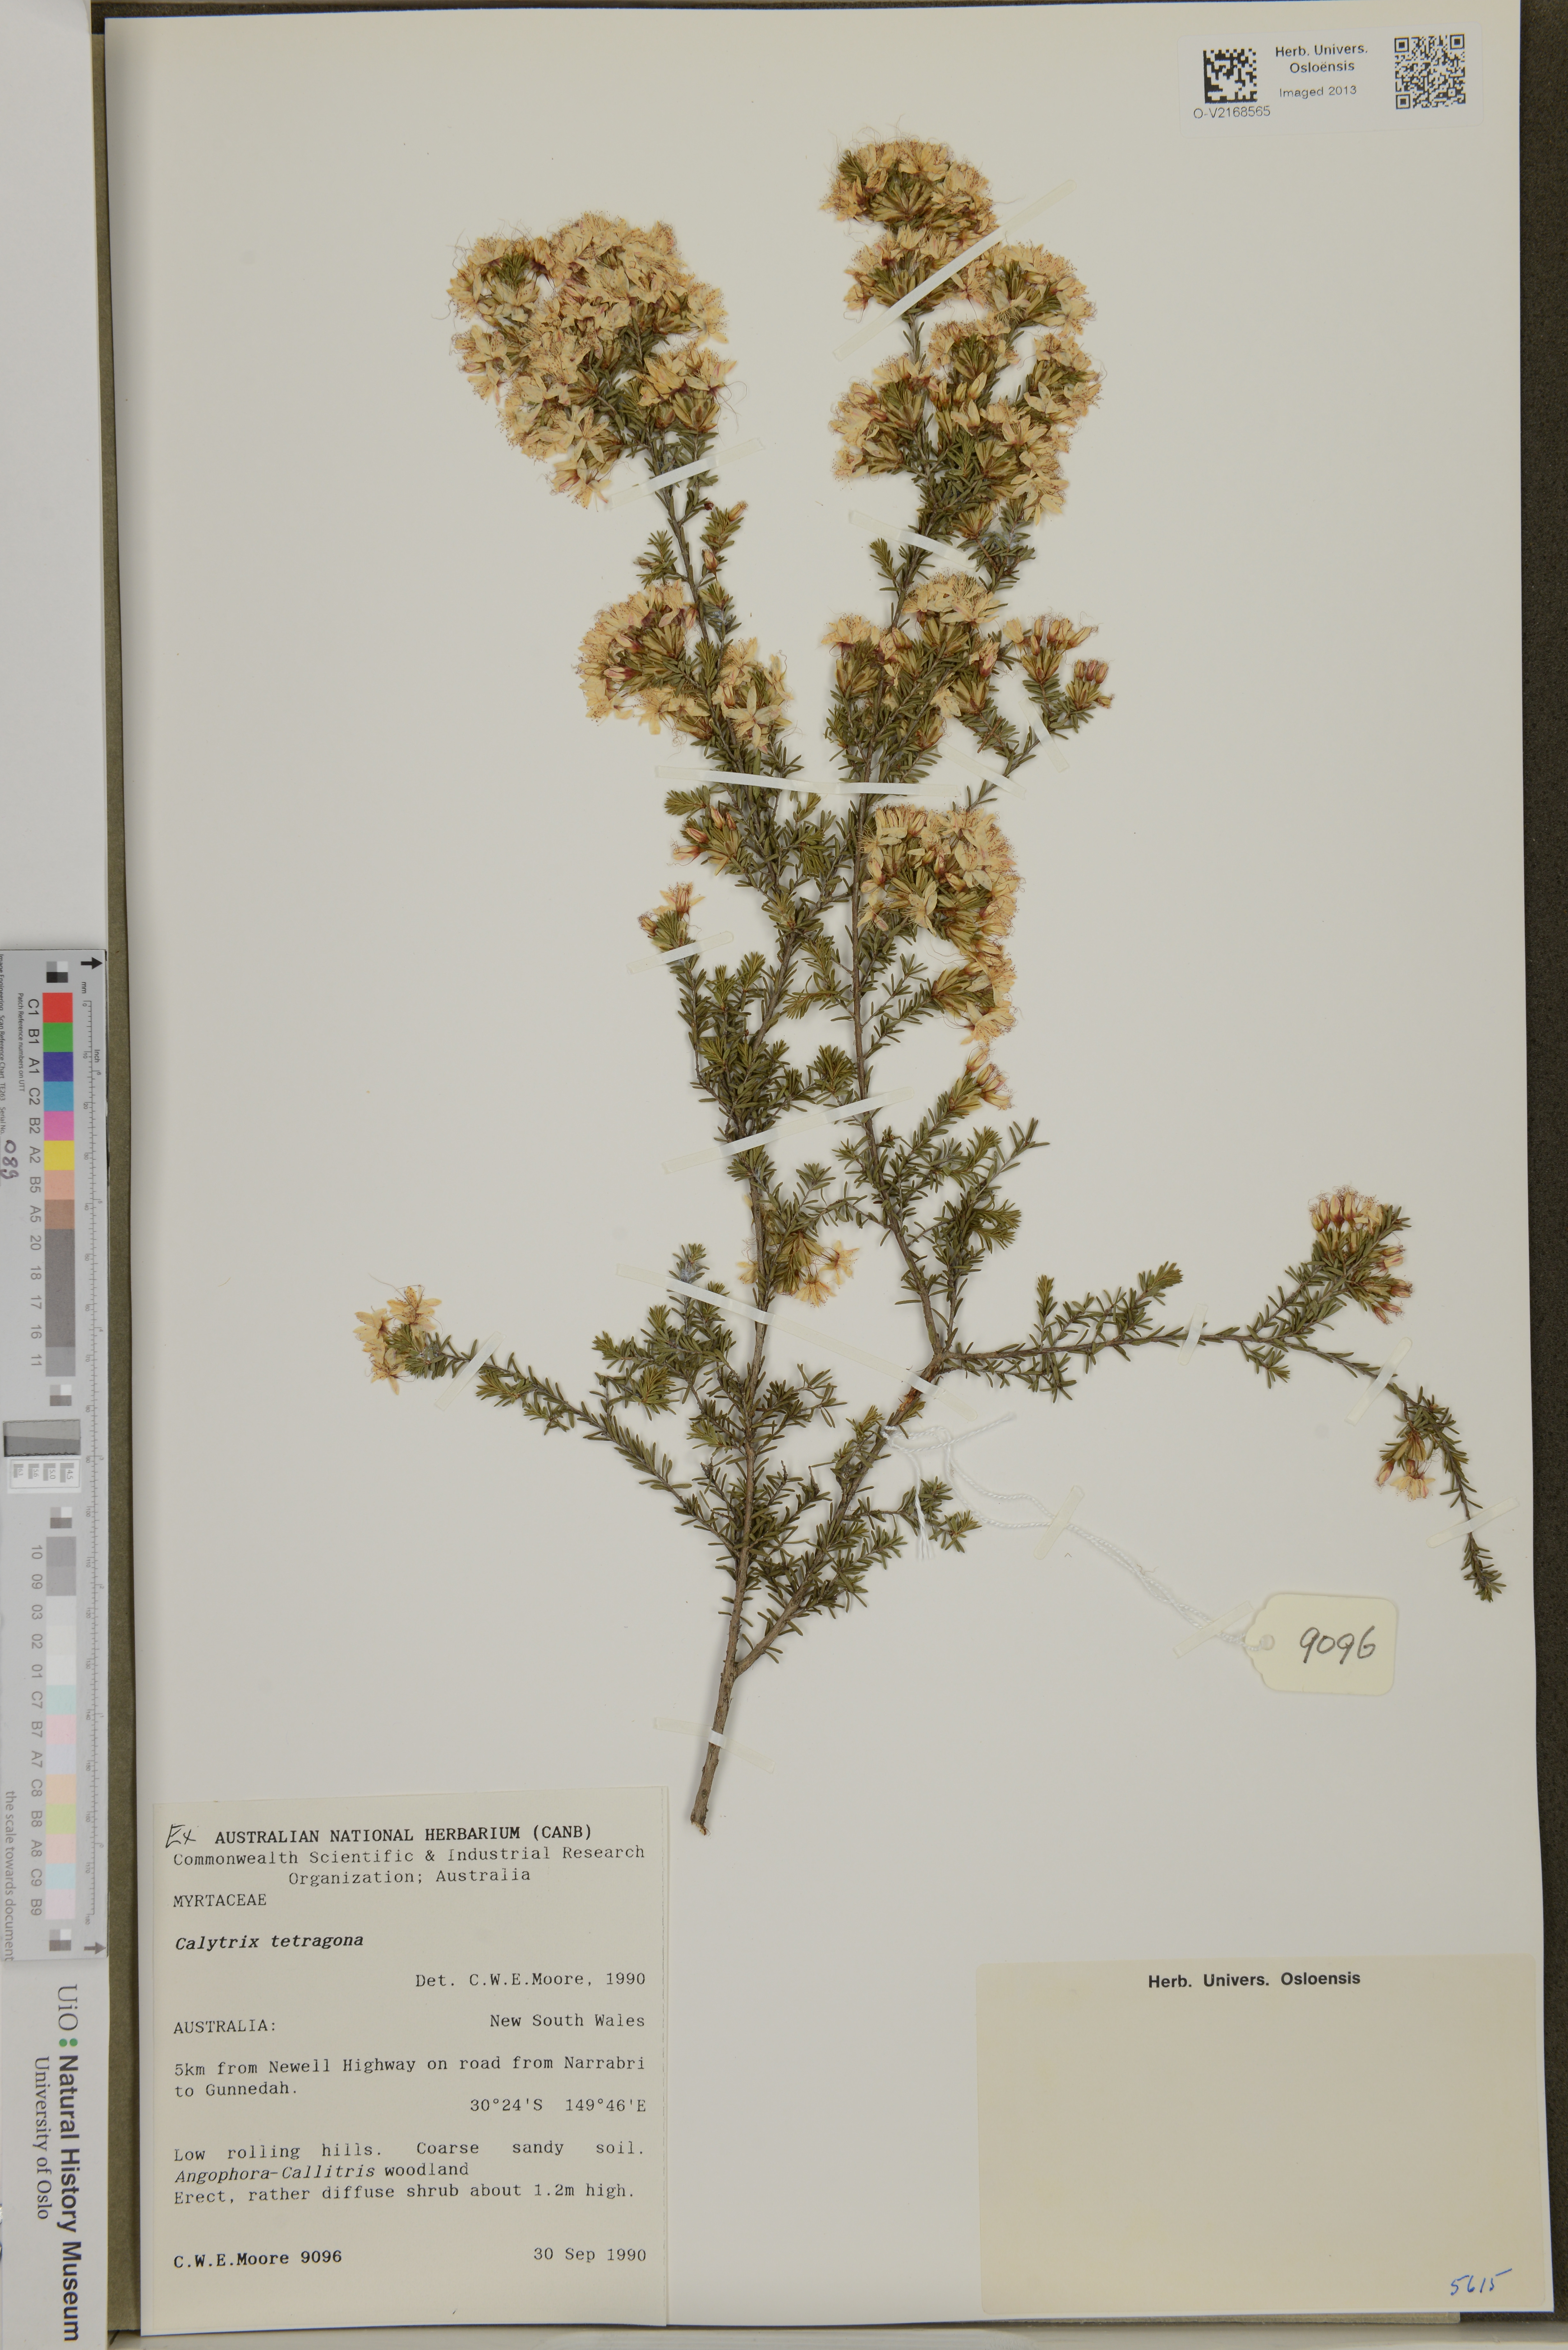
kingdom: Plantae
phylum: Tracheophyta
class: Magnoliopsida
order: Myrtales
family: Myrtaceae
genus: Calytrix
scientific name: Calytrix tetragona
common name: Common fringe myrtle
